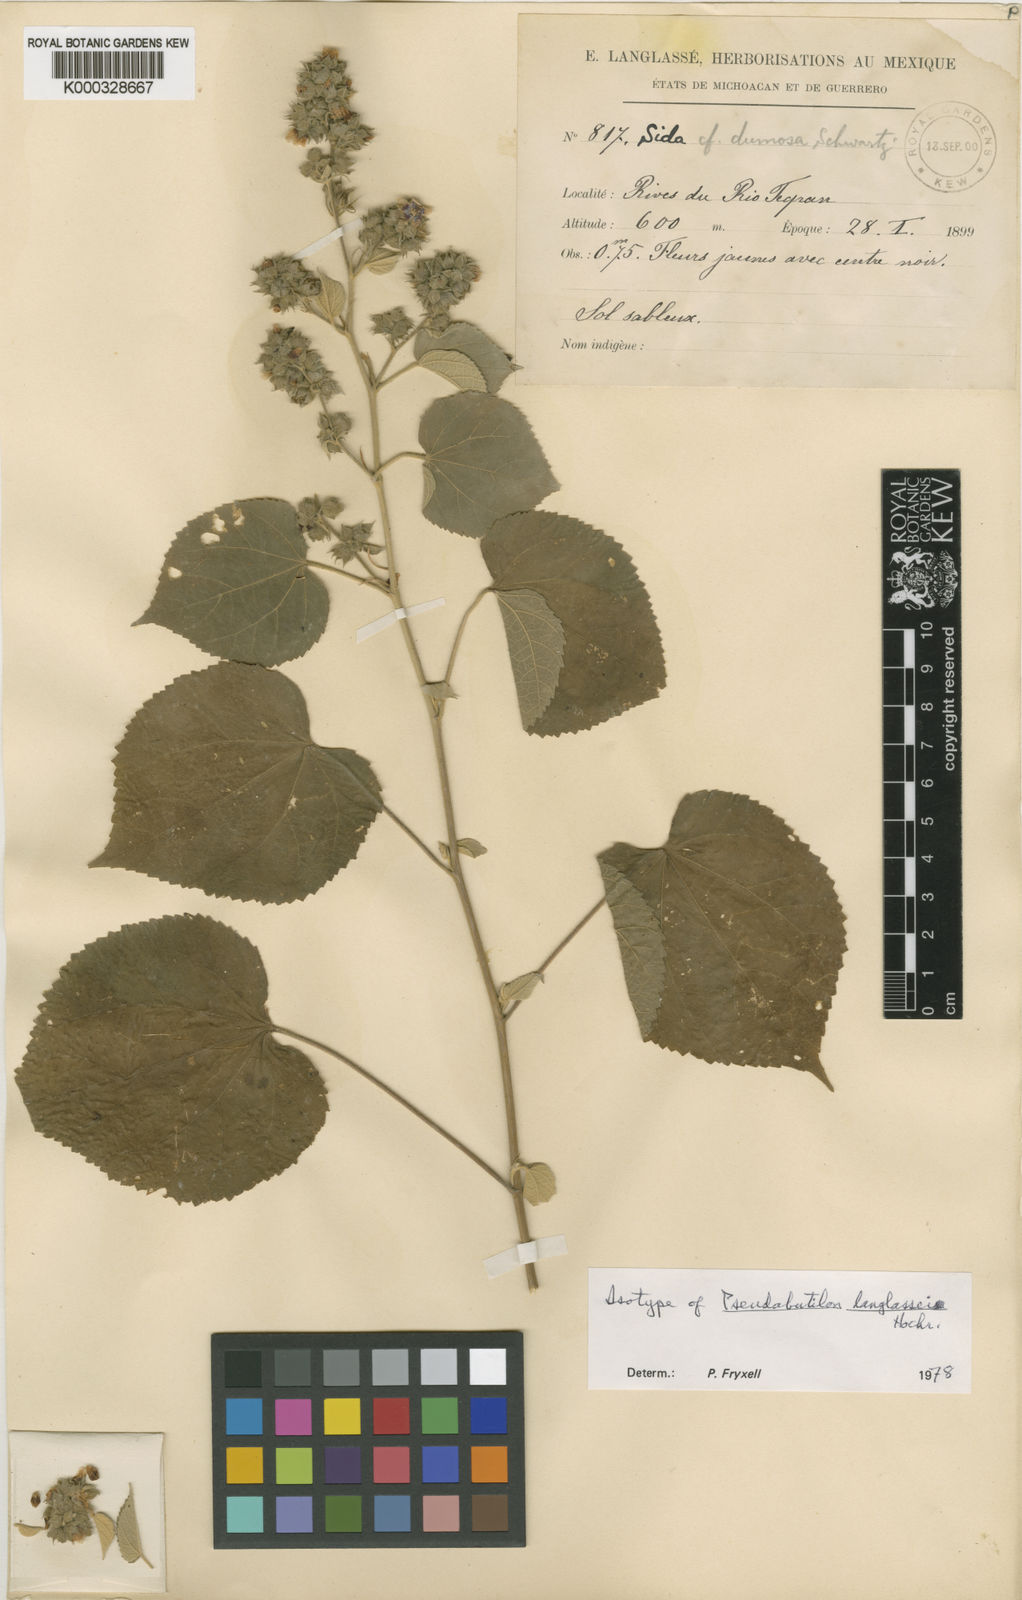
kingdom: Plantae
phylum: Tracheophyta
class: Magnoliopsida
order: Malvales
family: Malvaceae
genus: Allosidastrum
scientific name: Allosidastrum
